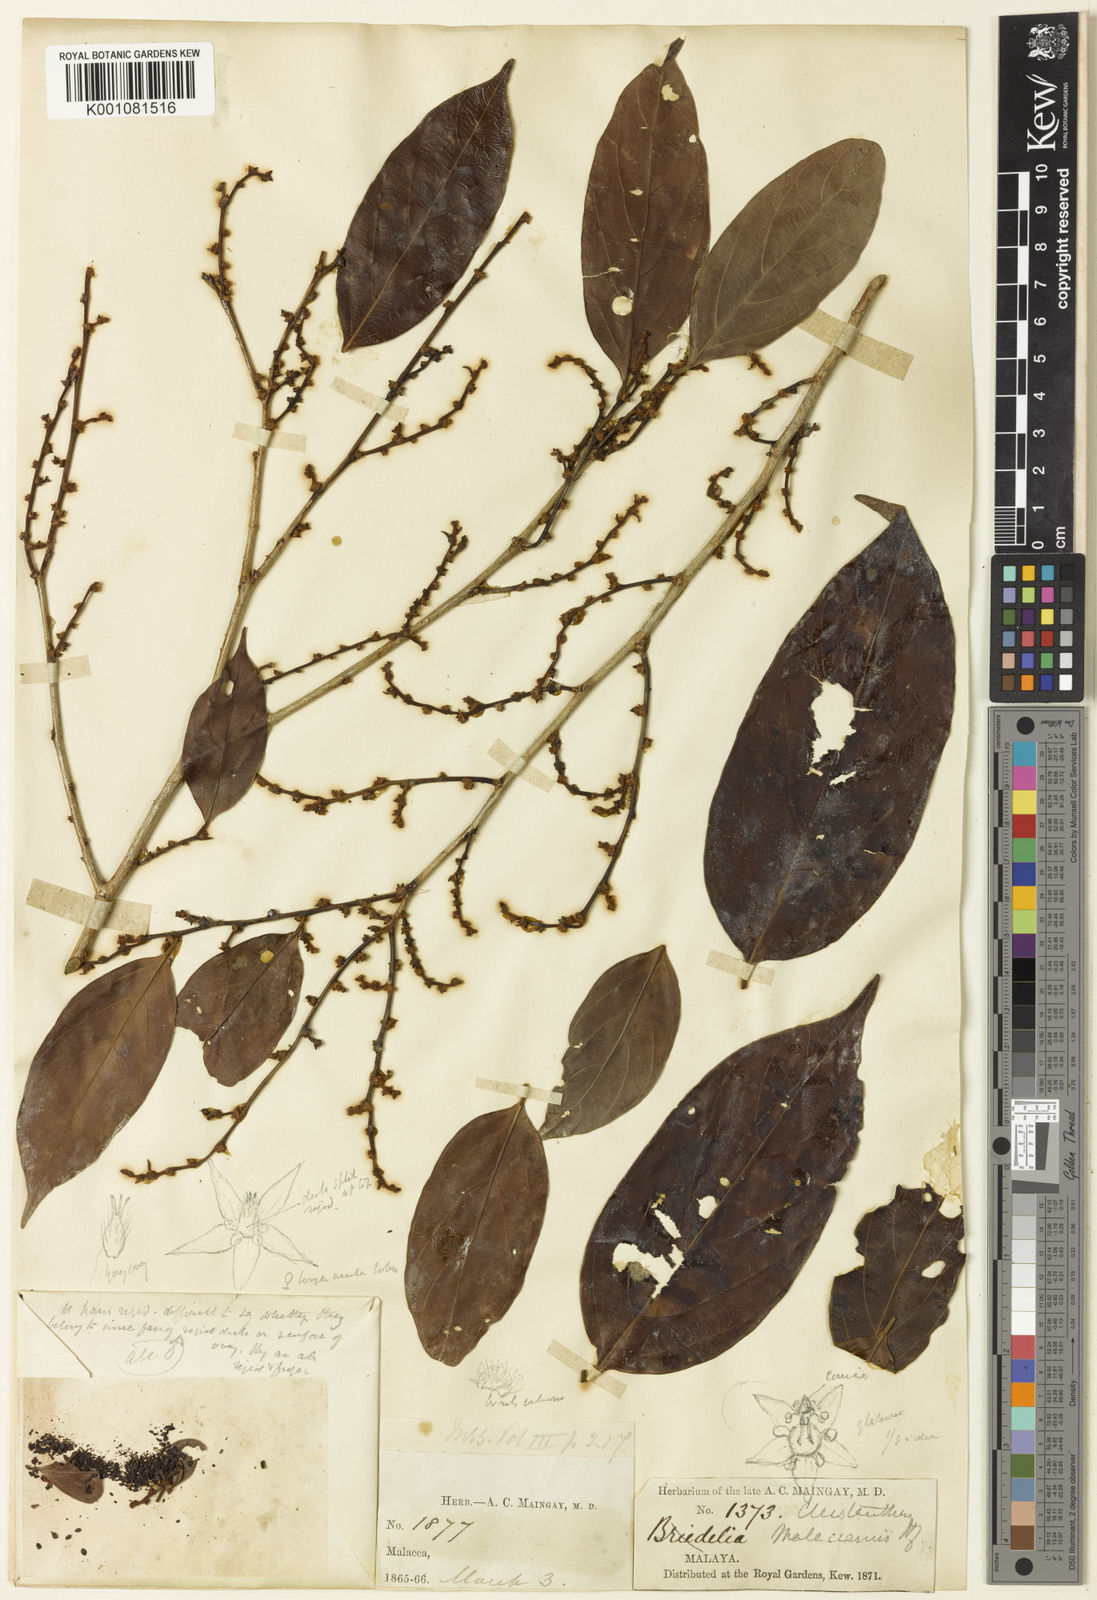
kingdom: Plantae
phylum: Tracheophyta
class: Magnoliopsida
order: Malpighiales
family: Phyllanthaceae
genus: Cleistanthus
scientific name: Cleistanthus malaccensis
